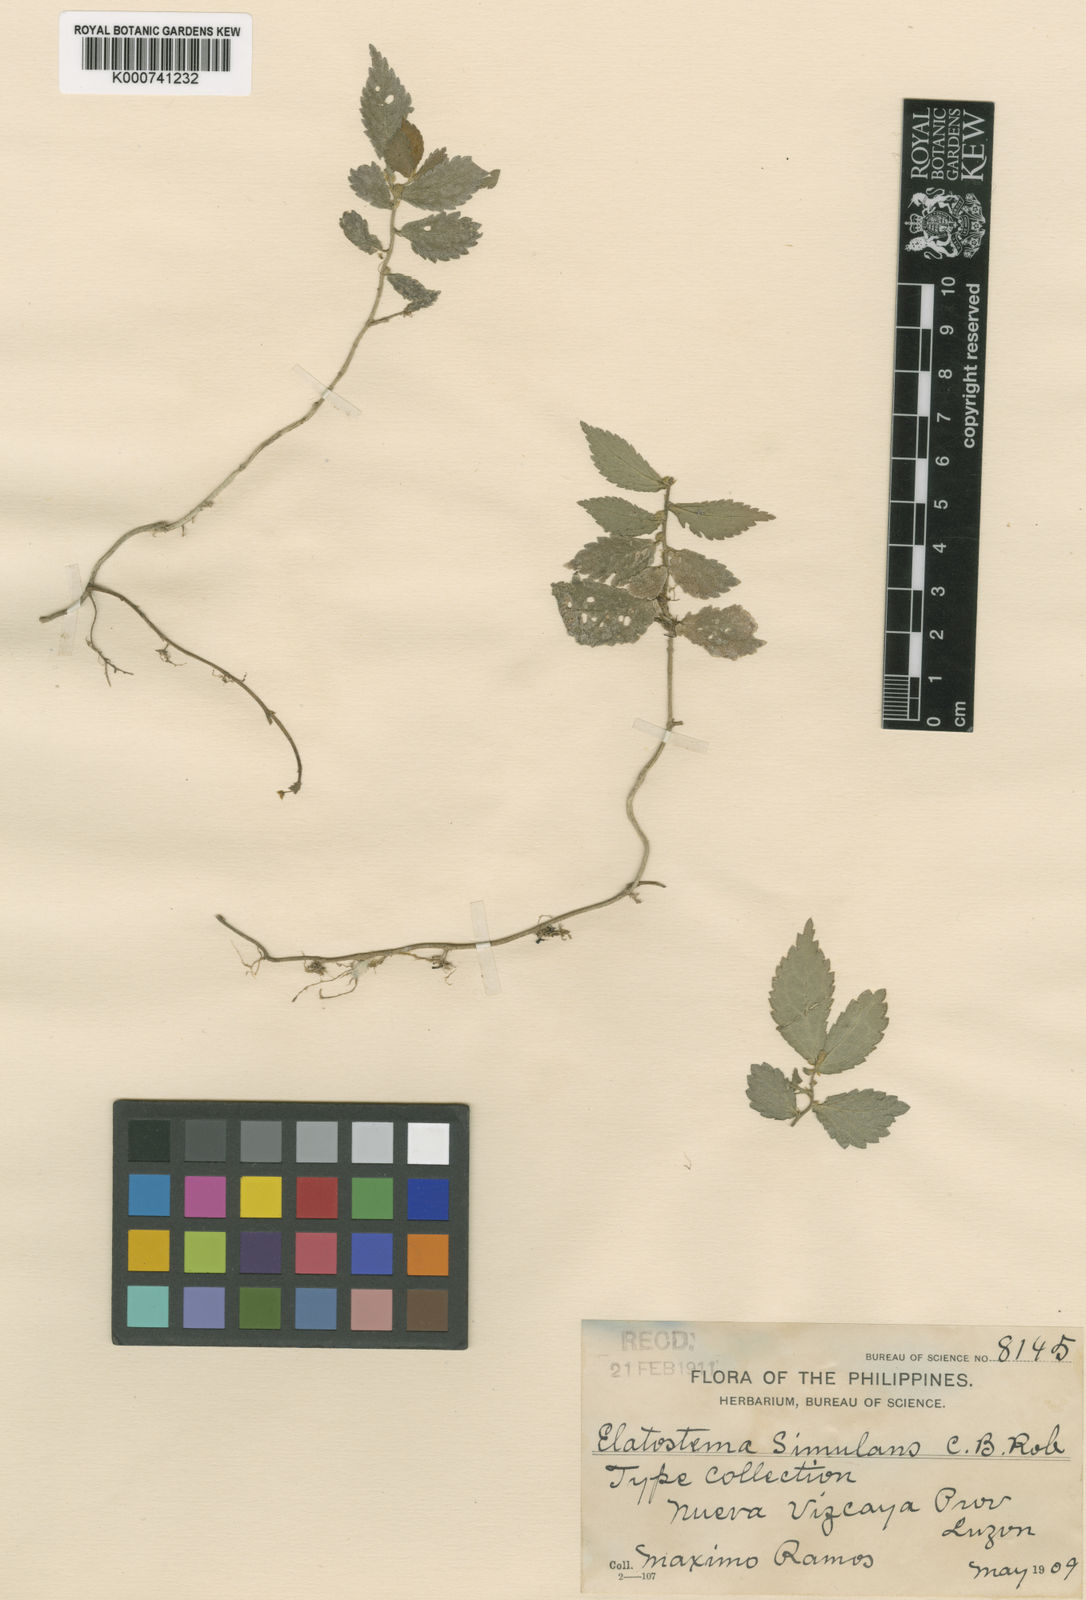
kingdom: Plantae
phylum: Tracheophyta
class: Magnoliopsida
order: Rosales
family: Urticaceae
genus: Elatostema
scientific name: Elatostema simulans
